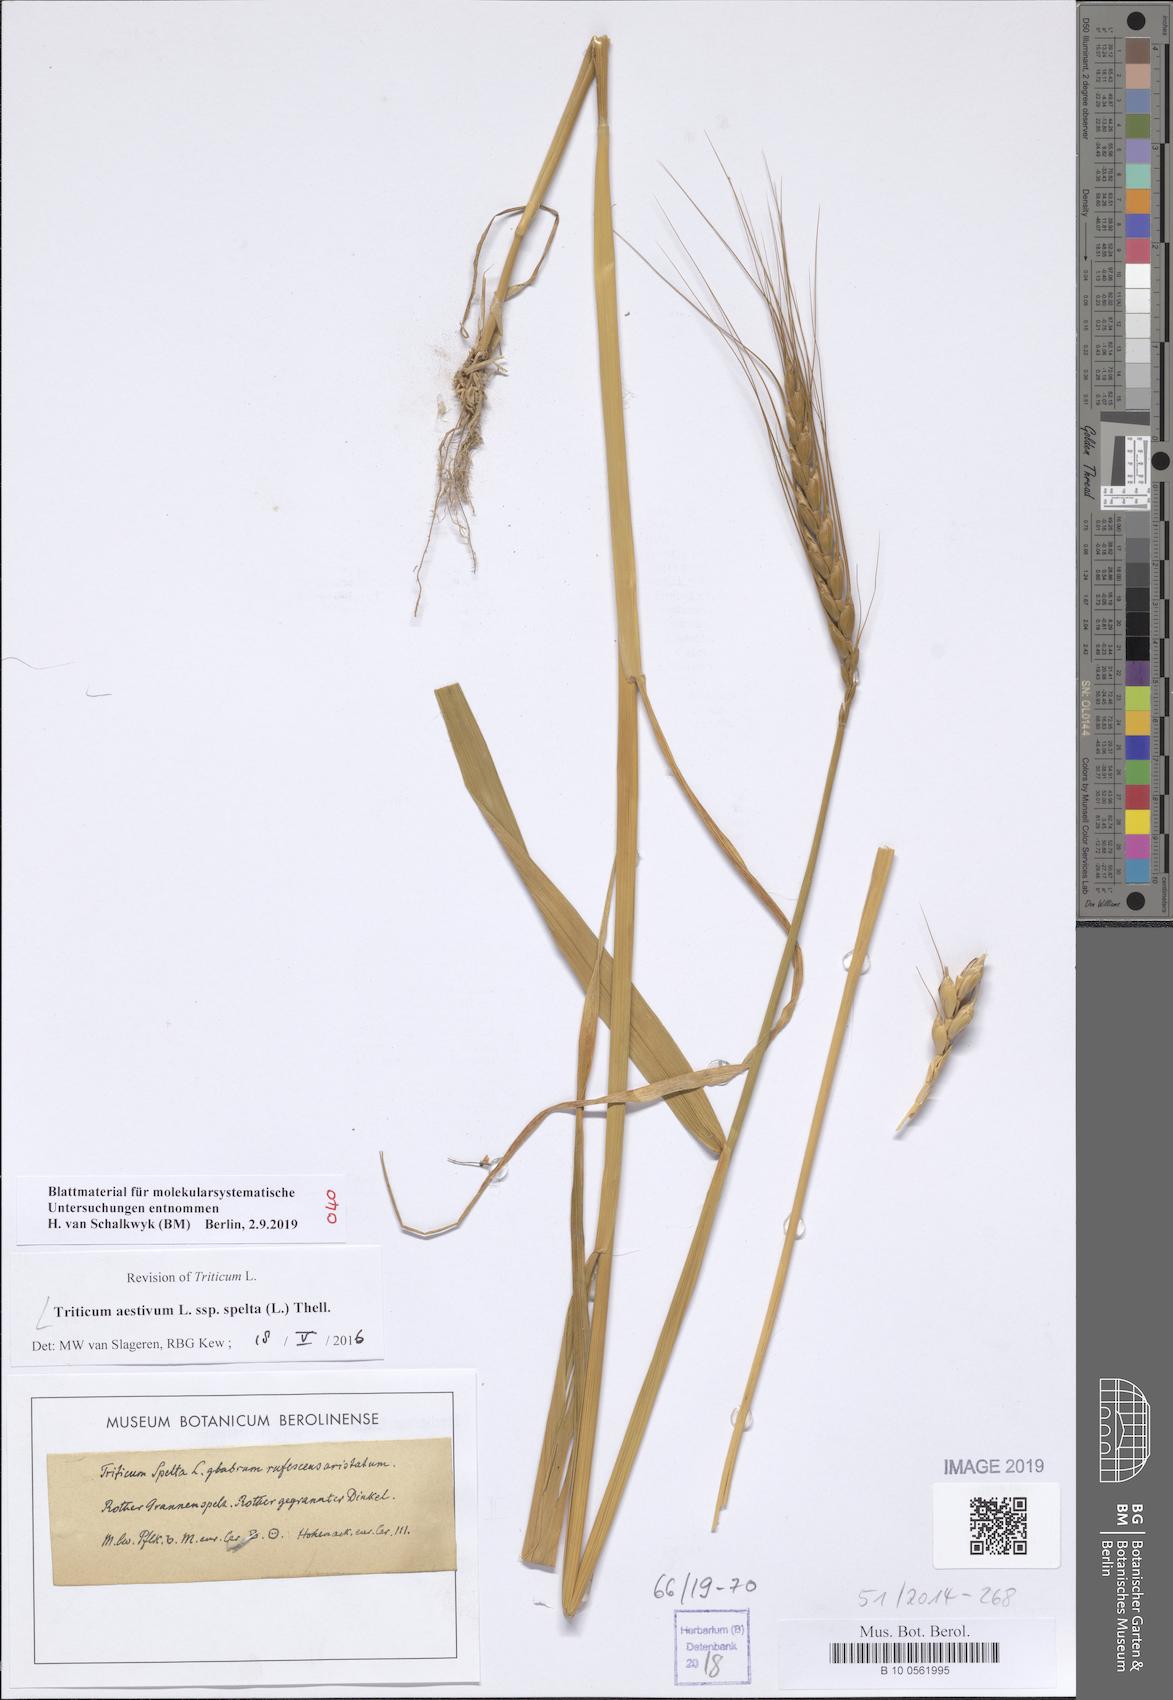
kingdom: Plantae
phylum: Tracheophyta
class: Liliopsida
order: Poales
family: Poaceae
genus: Triticum
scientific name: Triticum aestivum
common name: Common wheat
